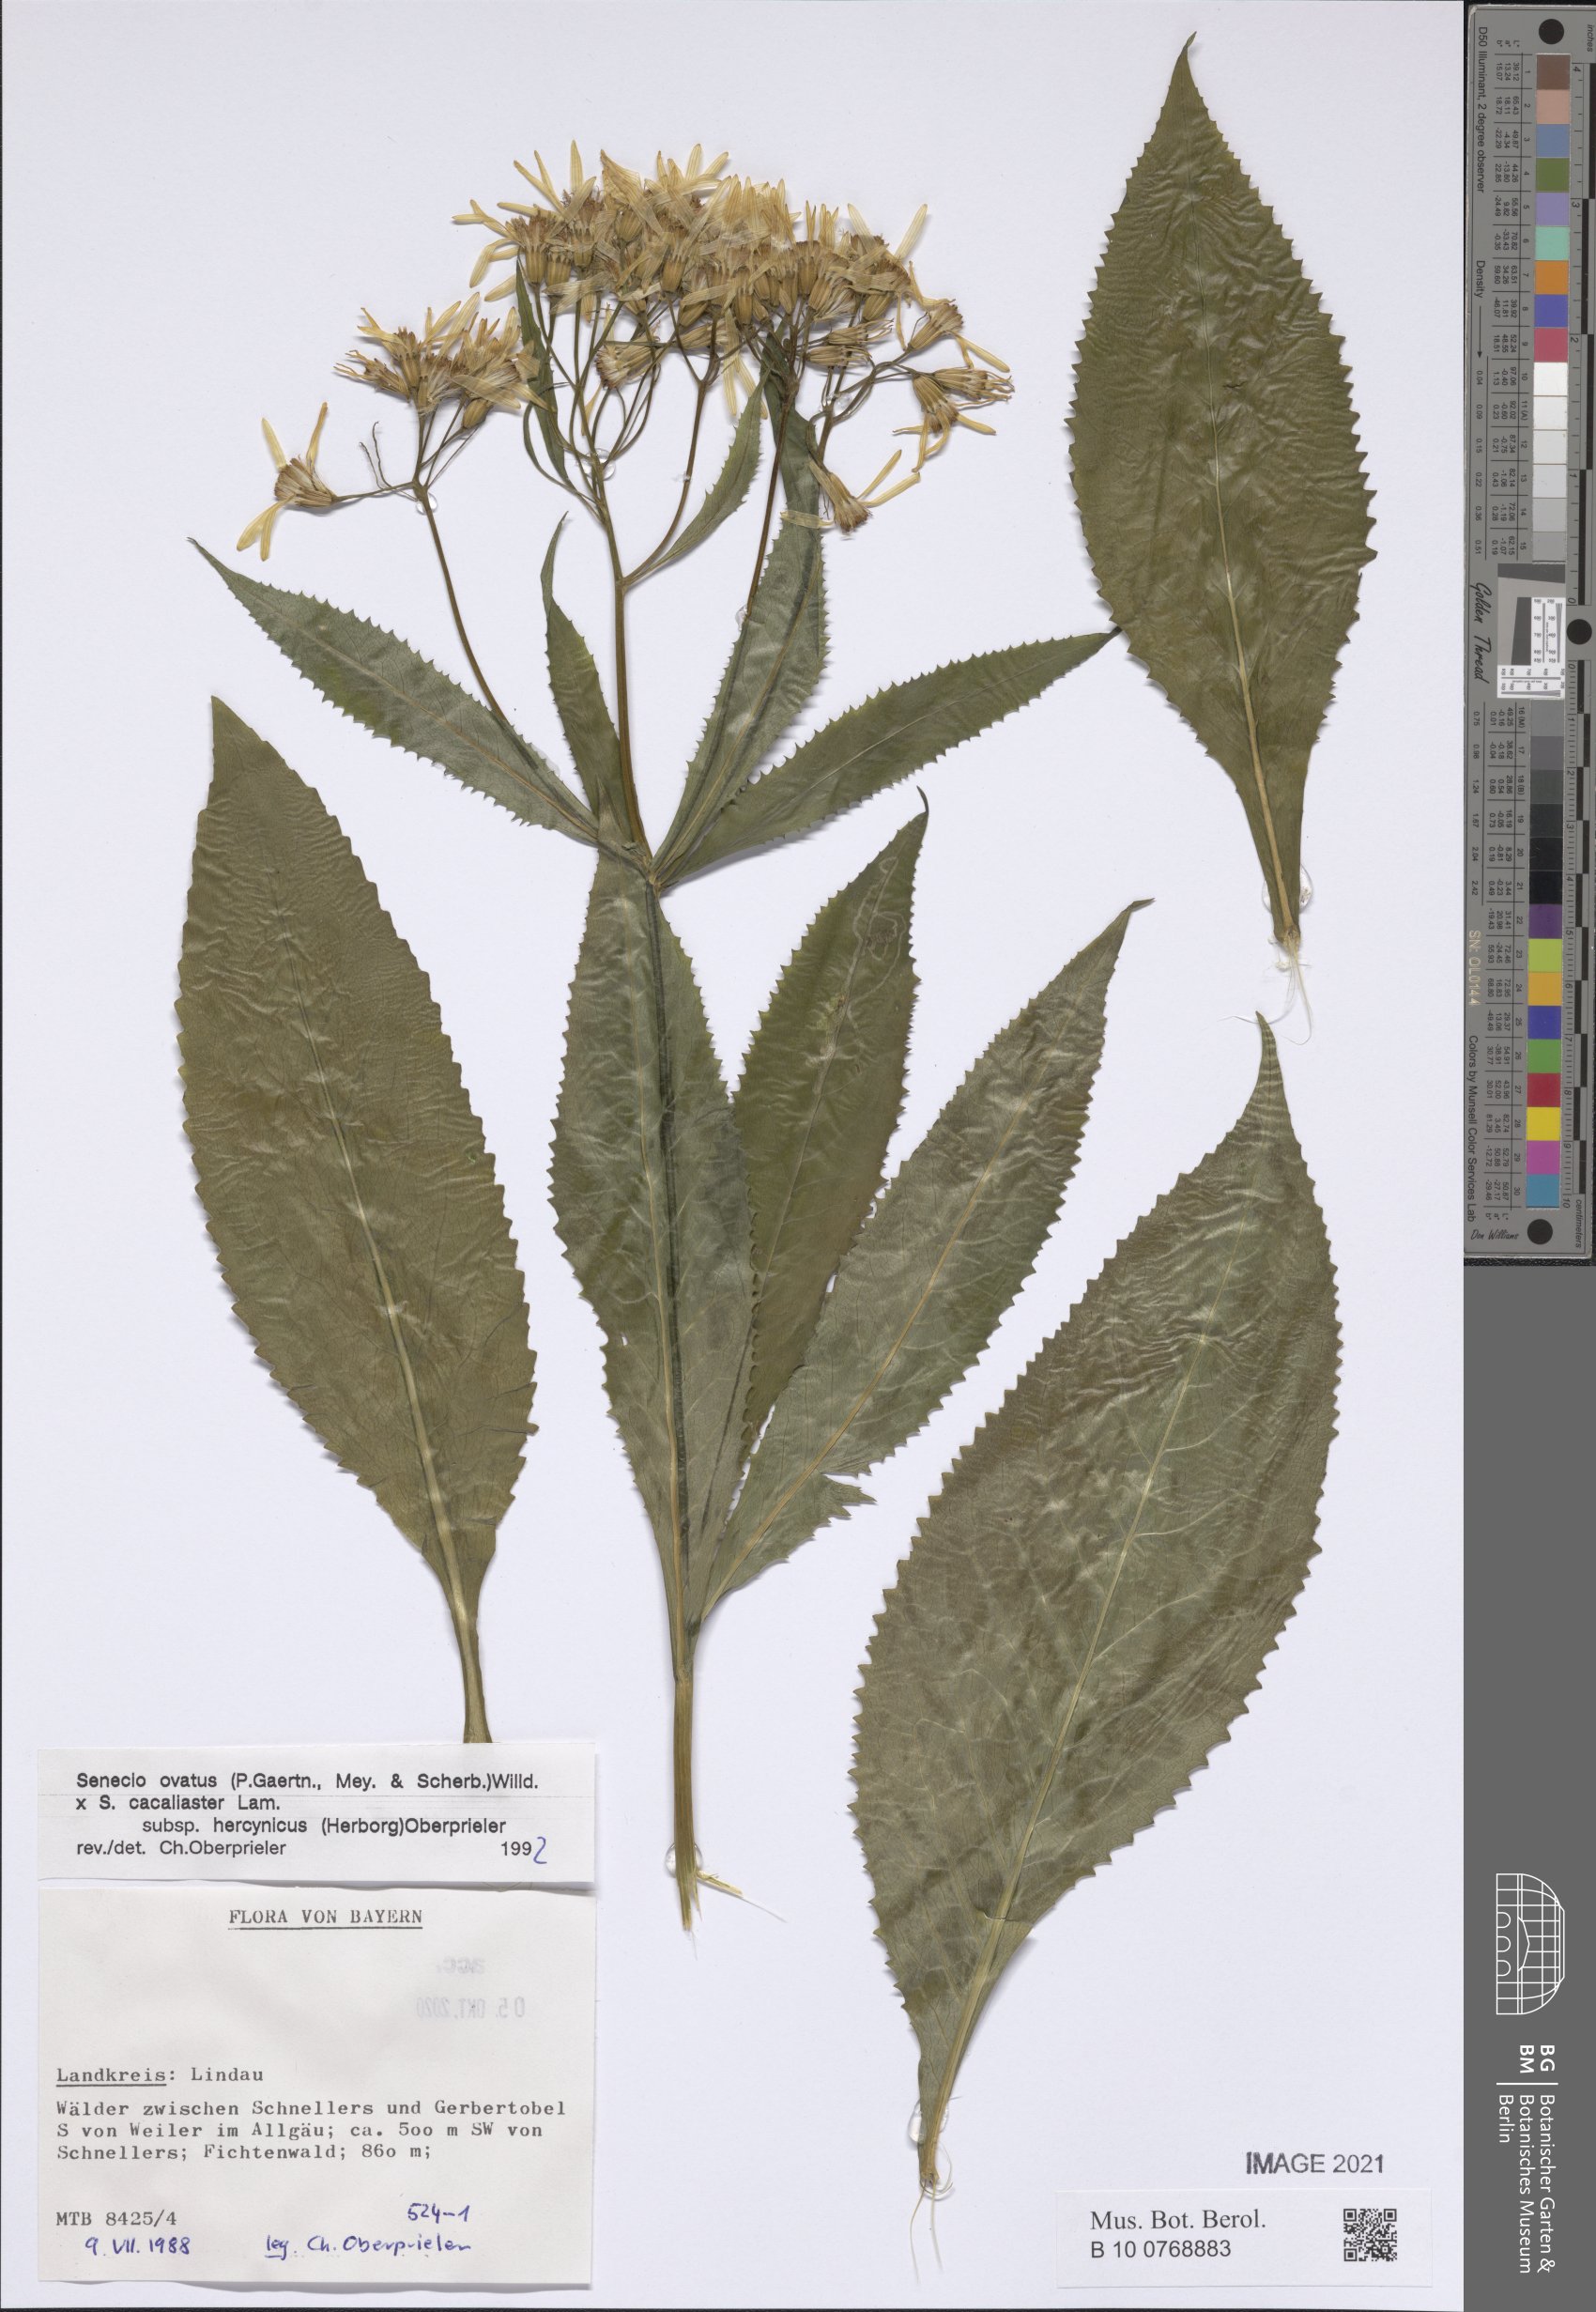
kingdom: Plantae
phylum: Tracheophyta
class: Magnoliopsida
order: Asterales
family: Asteraceae
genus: Senecio
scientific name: Senecio ovatus
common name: Wood ragwort
